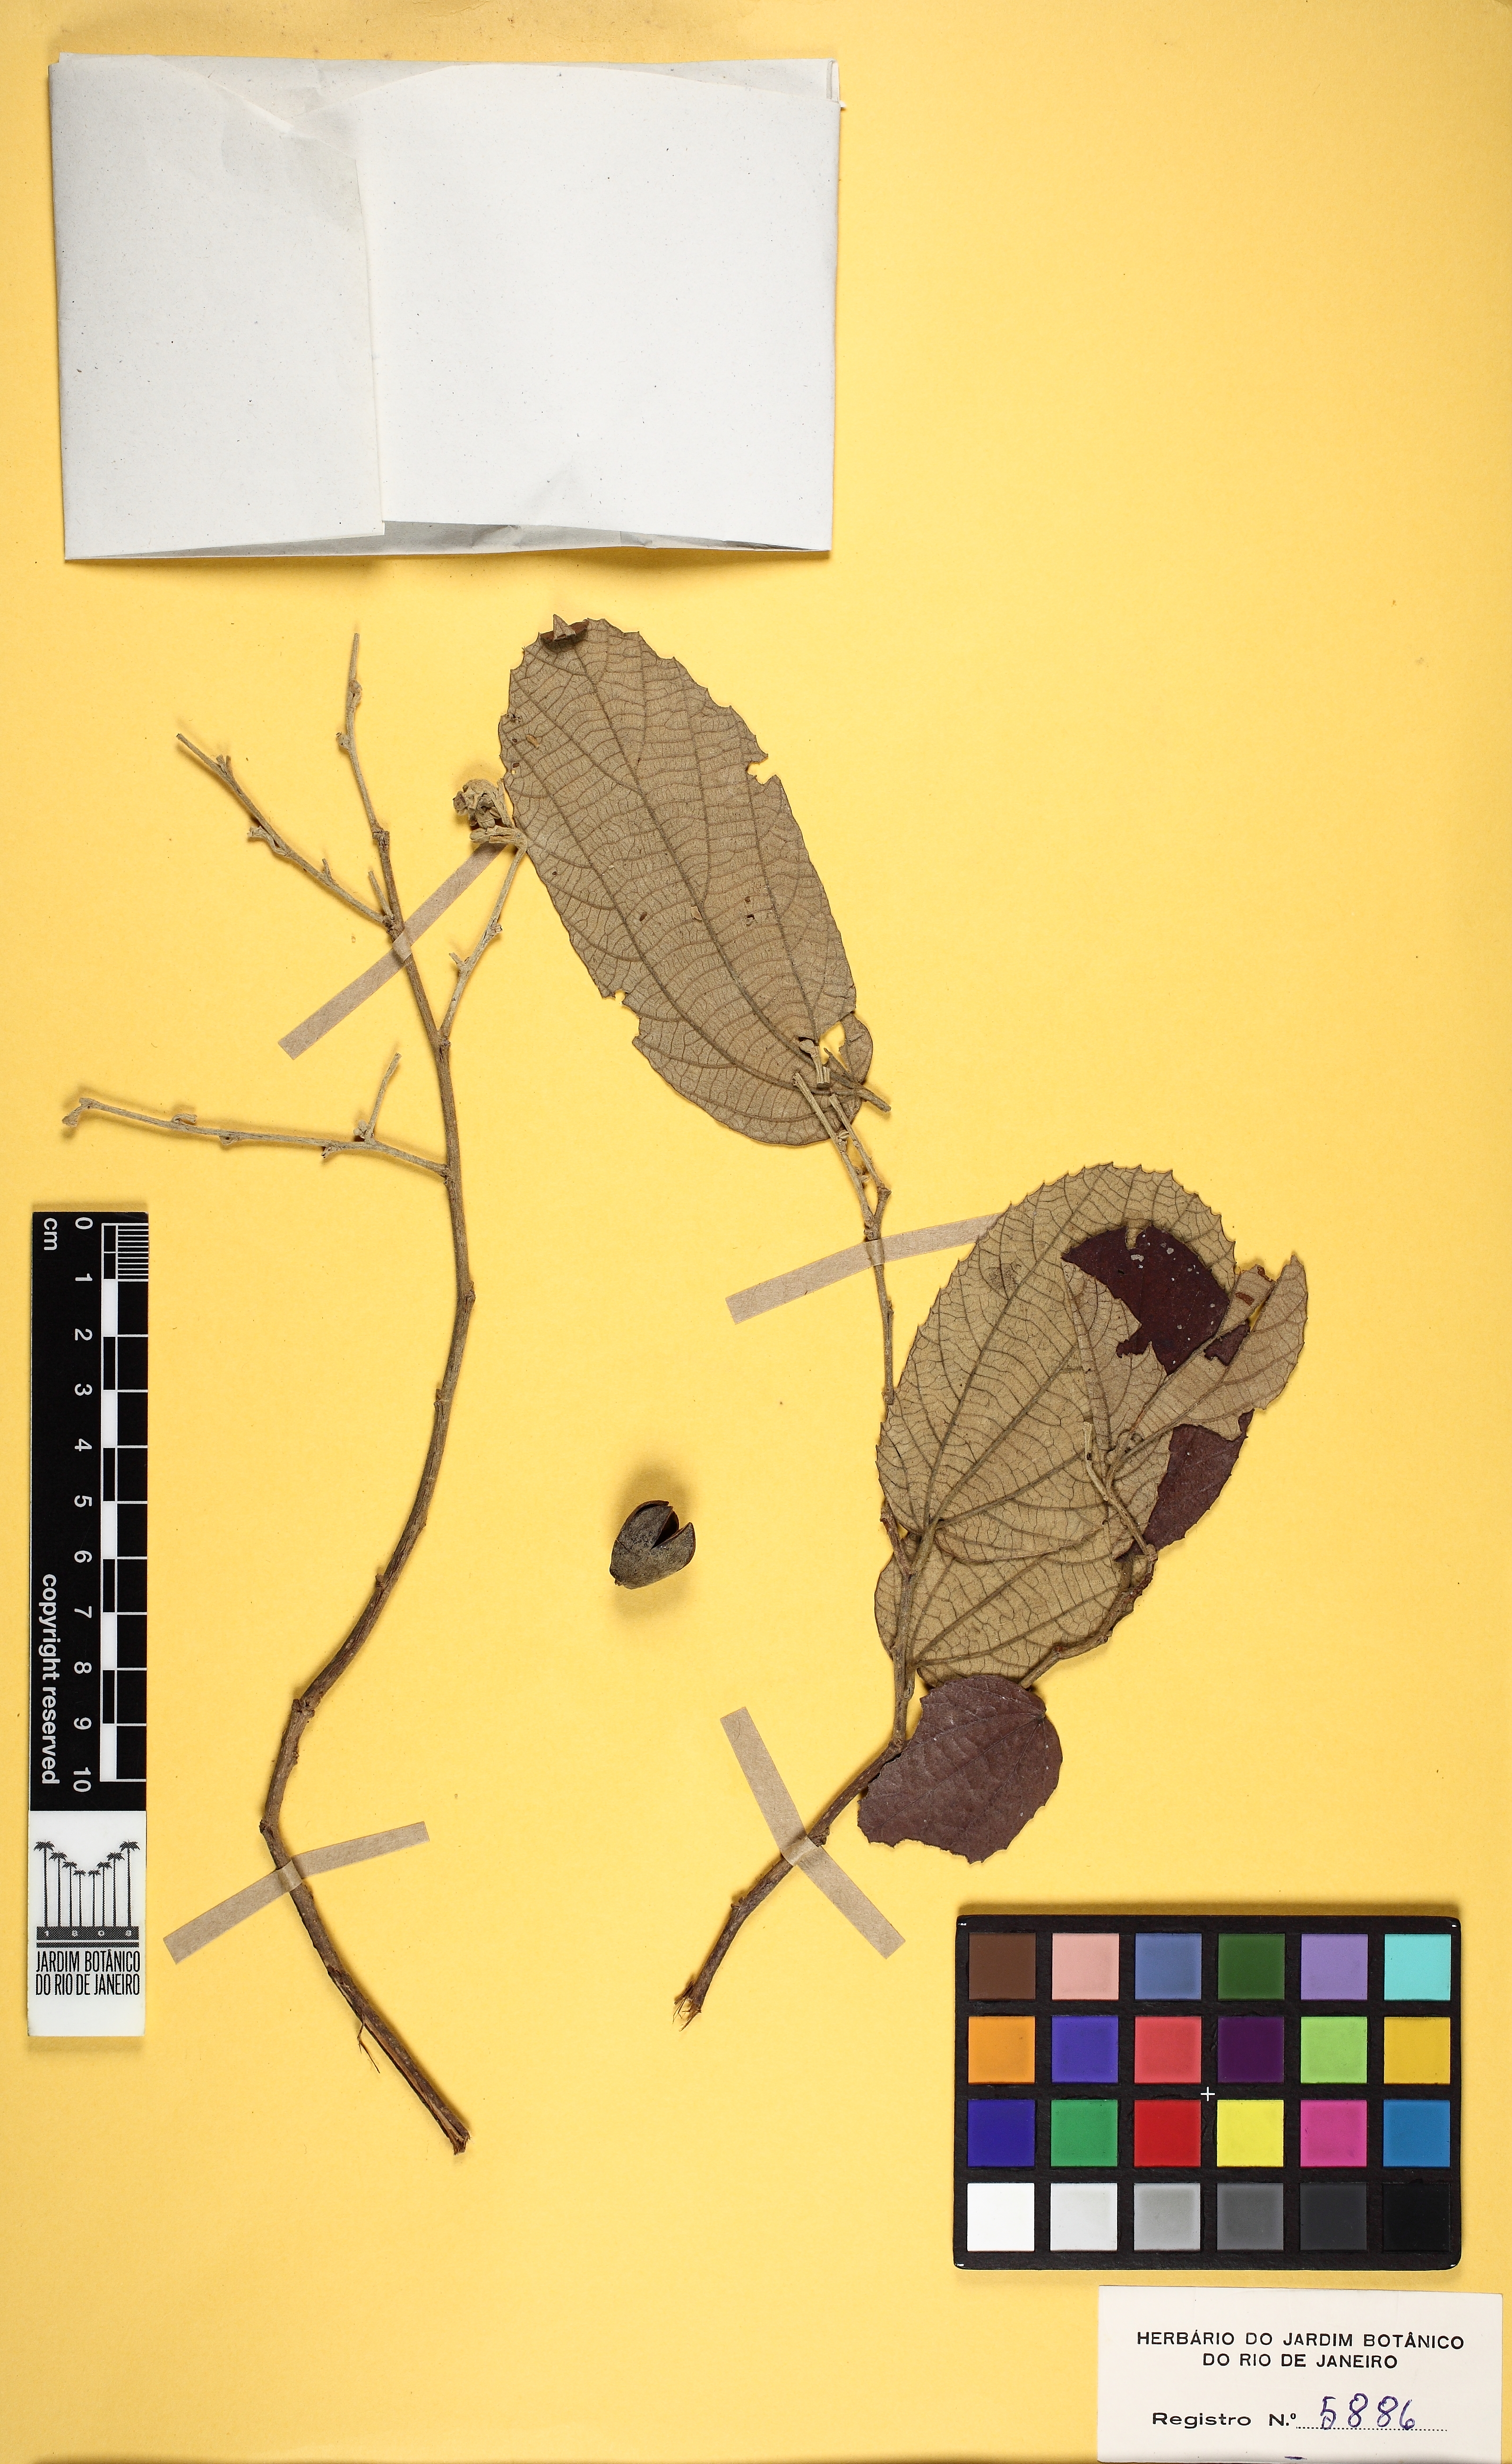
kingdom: Plantae
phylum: Tracheophyta
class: Magnoliopsida
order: Malvales
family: Malvaceae
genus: Luehea
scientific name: Luehea paniculata
